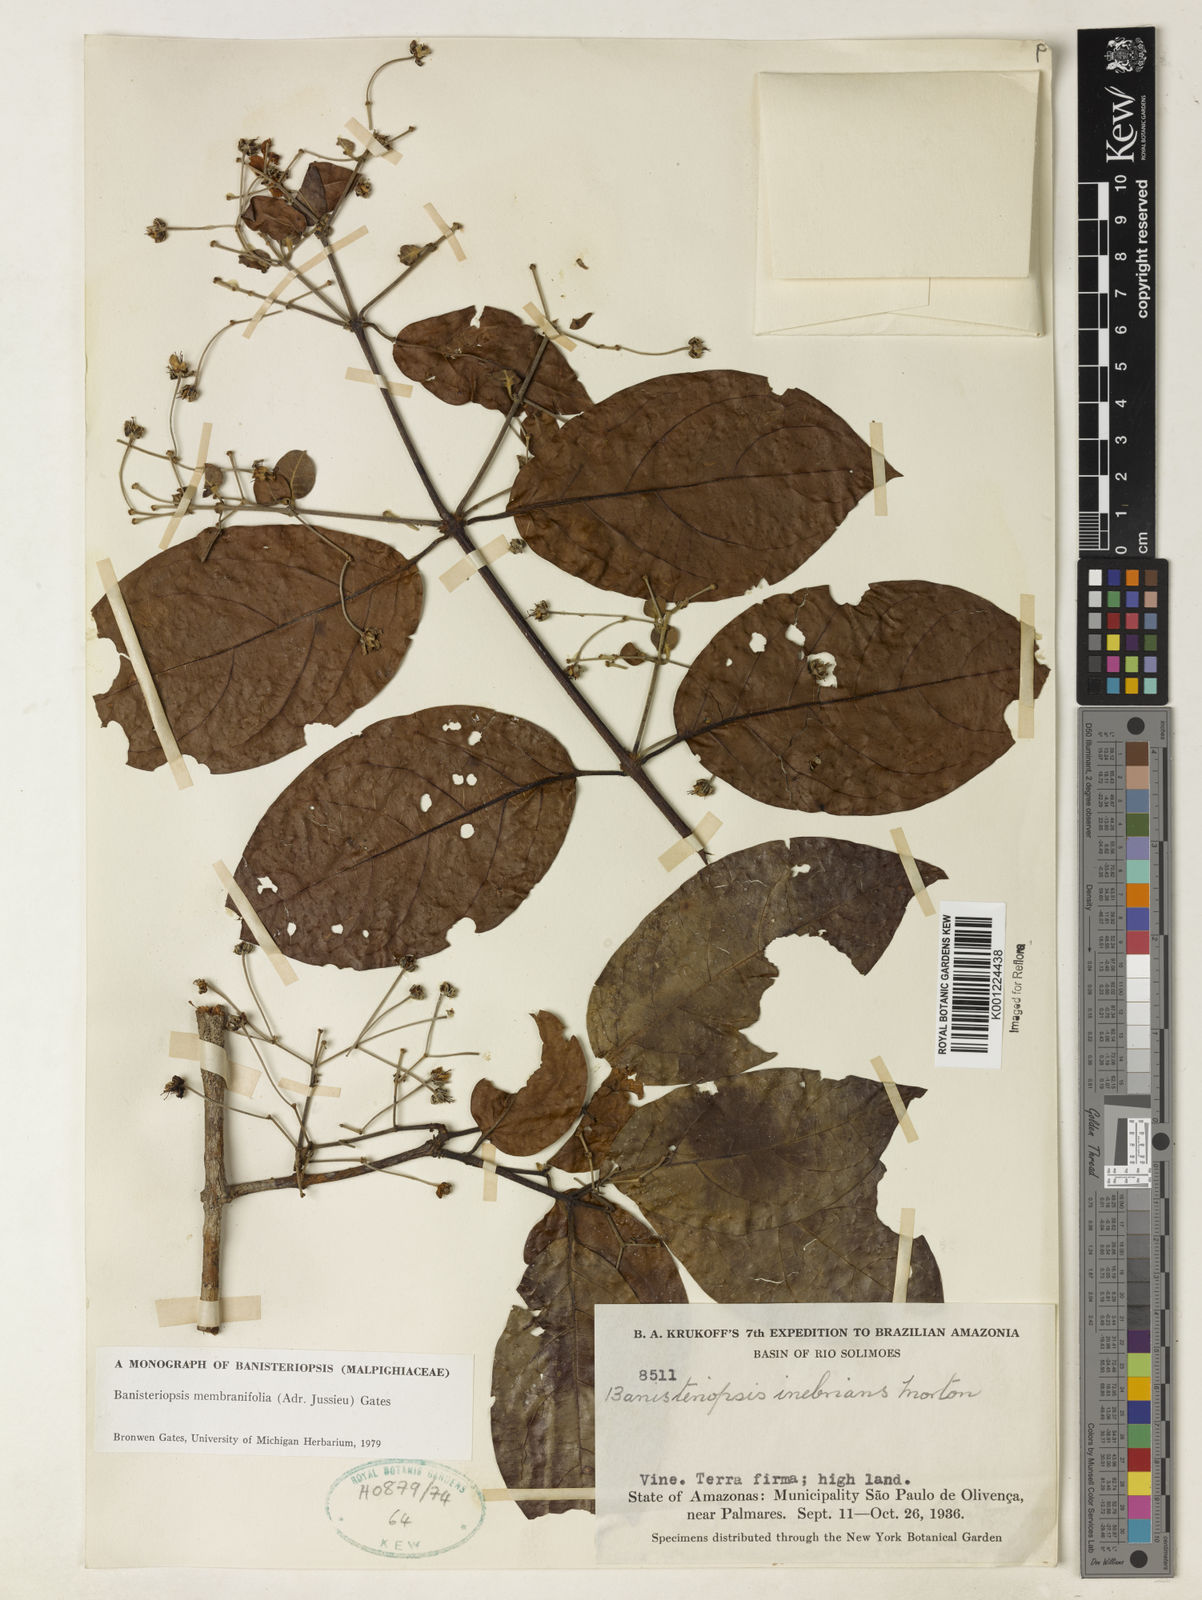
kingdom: Plantae
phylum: Tracheophyta
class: Magnoliopsida
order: Malpighiales
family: Malpighiaceae
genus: Banisteriopsis
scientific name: Banisteriopsis membranifolia
